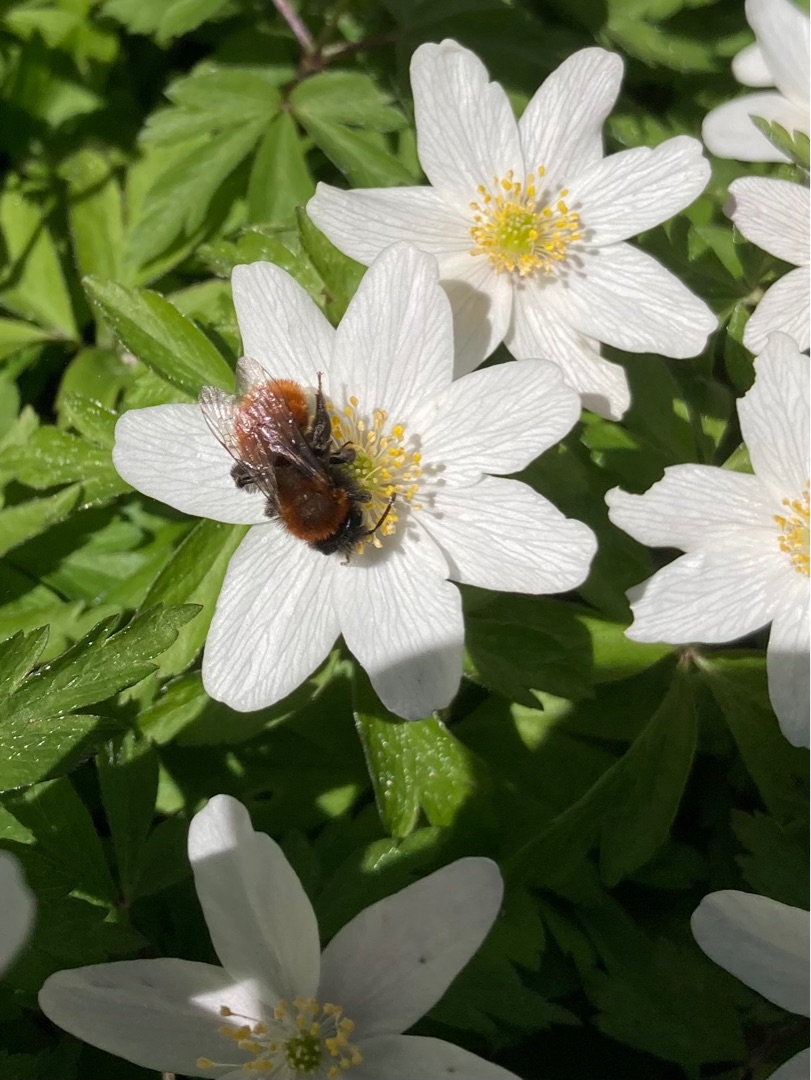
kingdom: Animalia
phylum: Arthropoda
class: Insecta
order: Hymenoptera
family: Andrenidae
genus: Andrena
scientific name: Andrena fulva
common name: Rødpelset jordbi
